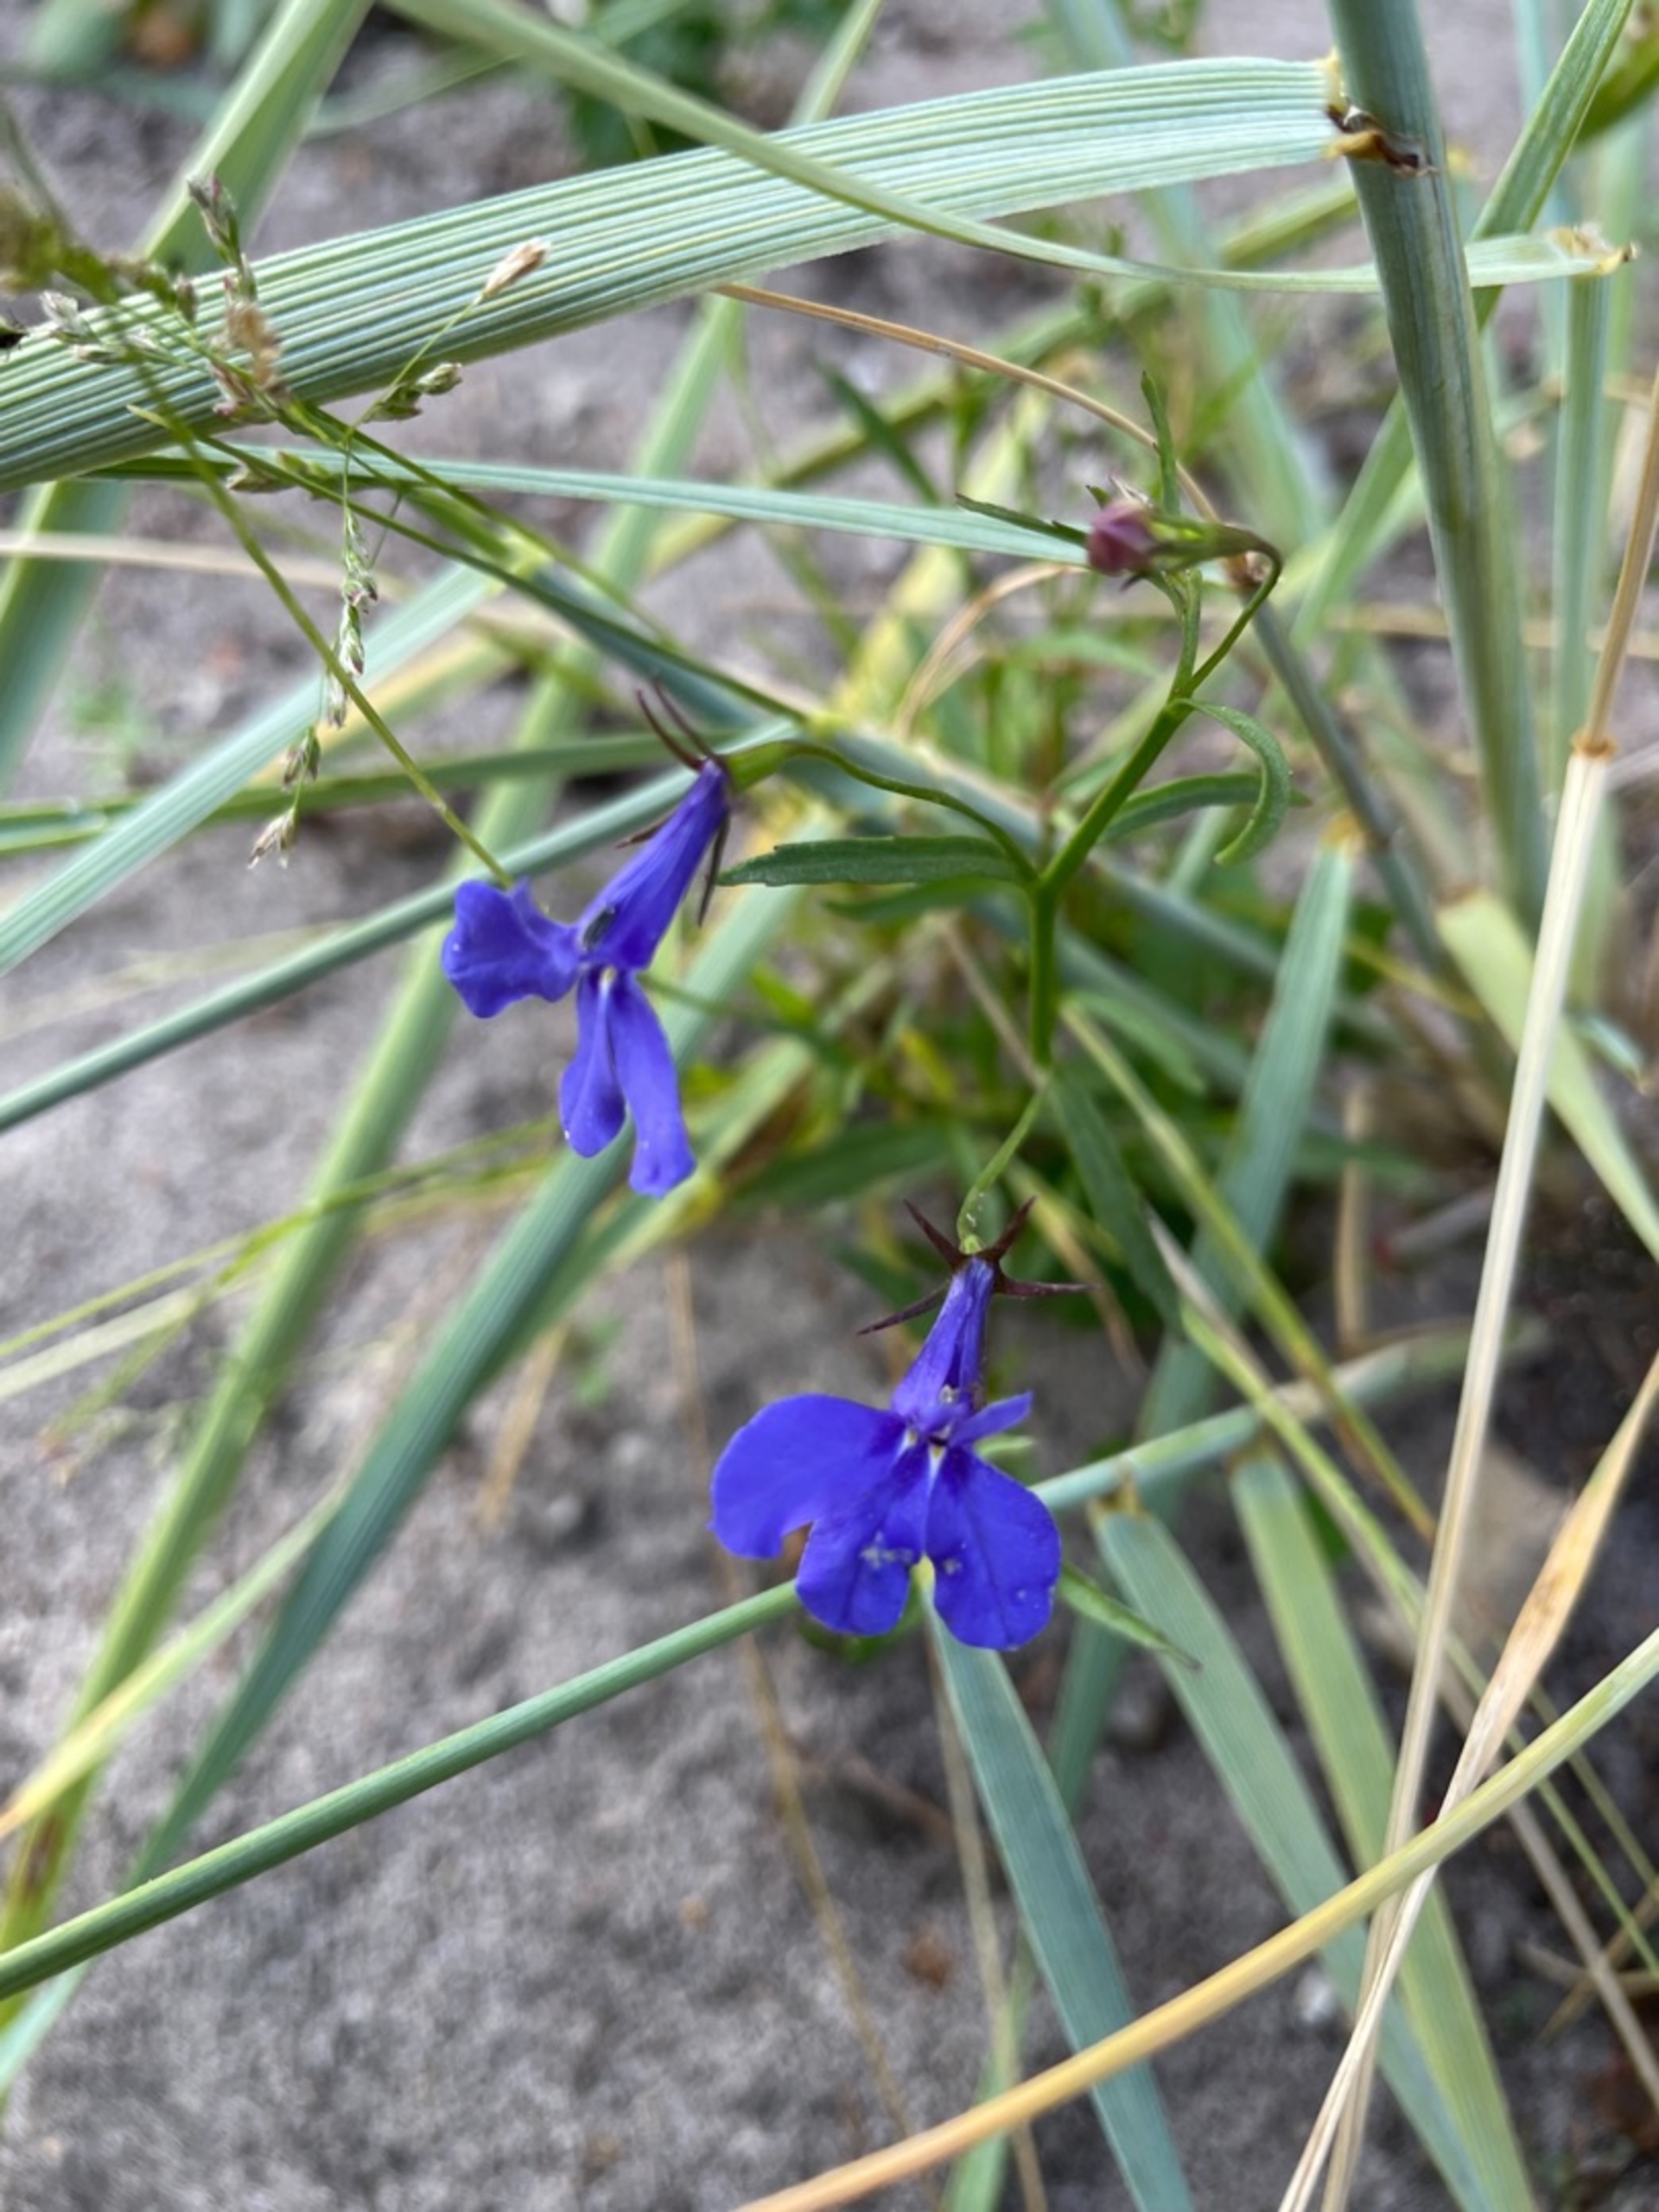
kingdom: Plantae
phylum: Tracheophyta
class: Magnoliopsida
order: Asterales
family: Campanulaceae
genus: Lobelia
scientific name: Lobelia erinus
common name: Kant-lobelie
